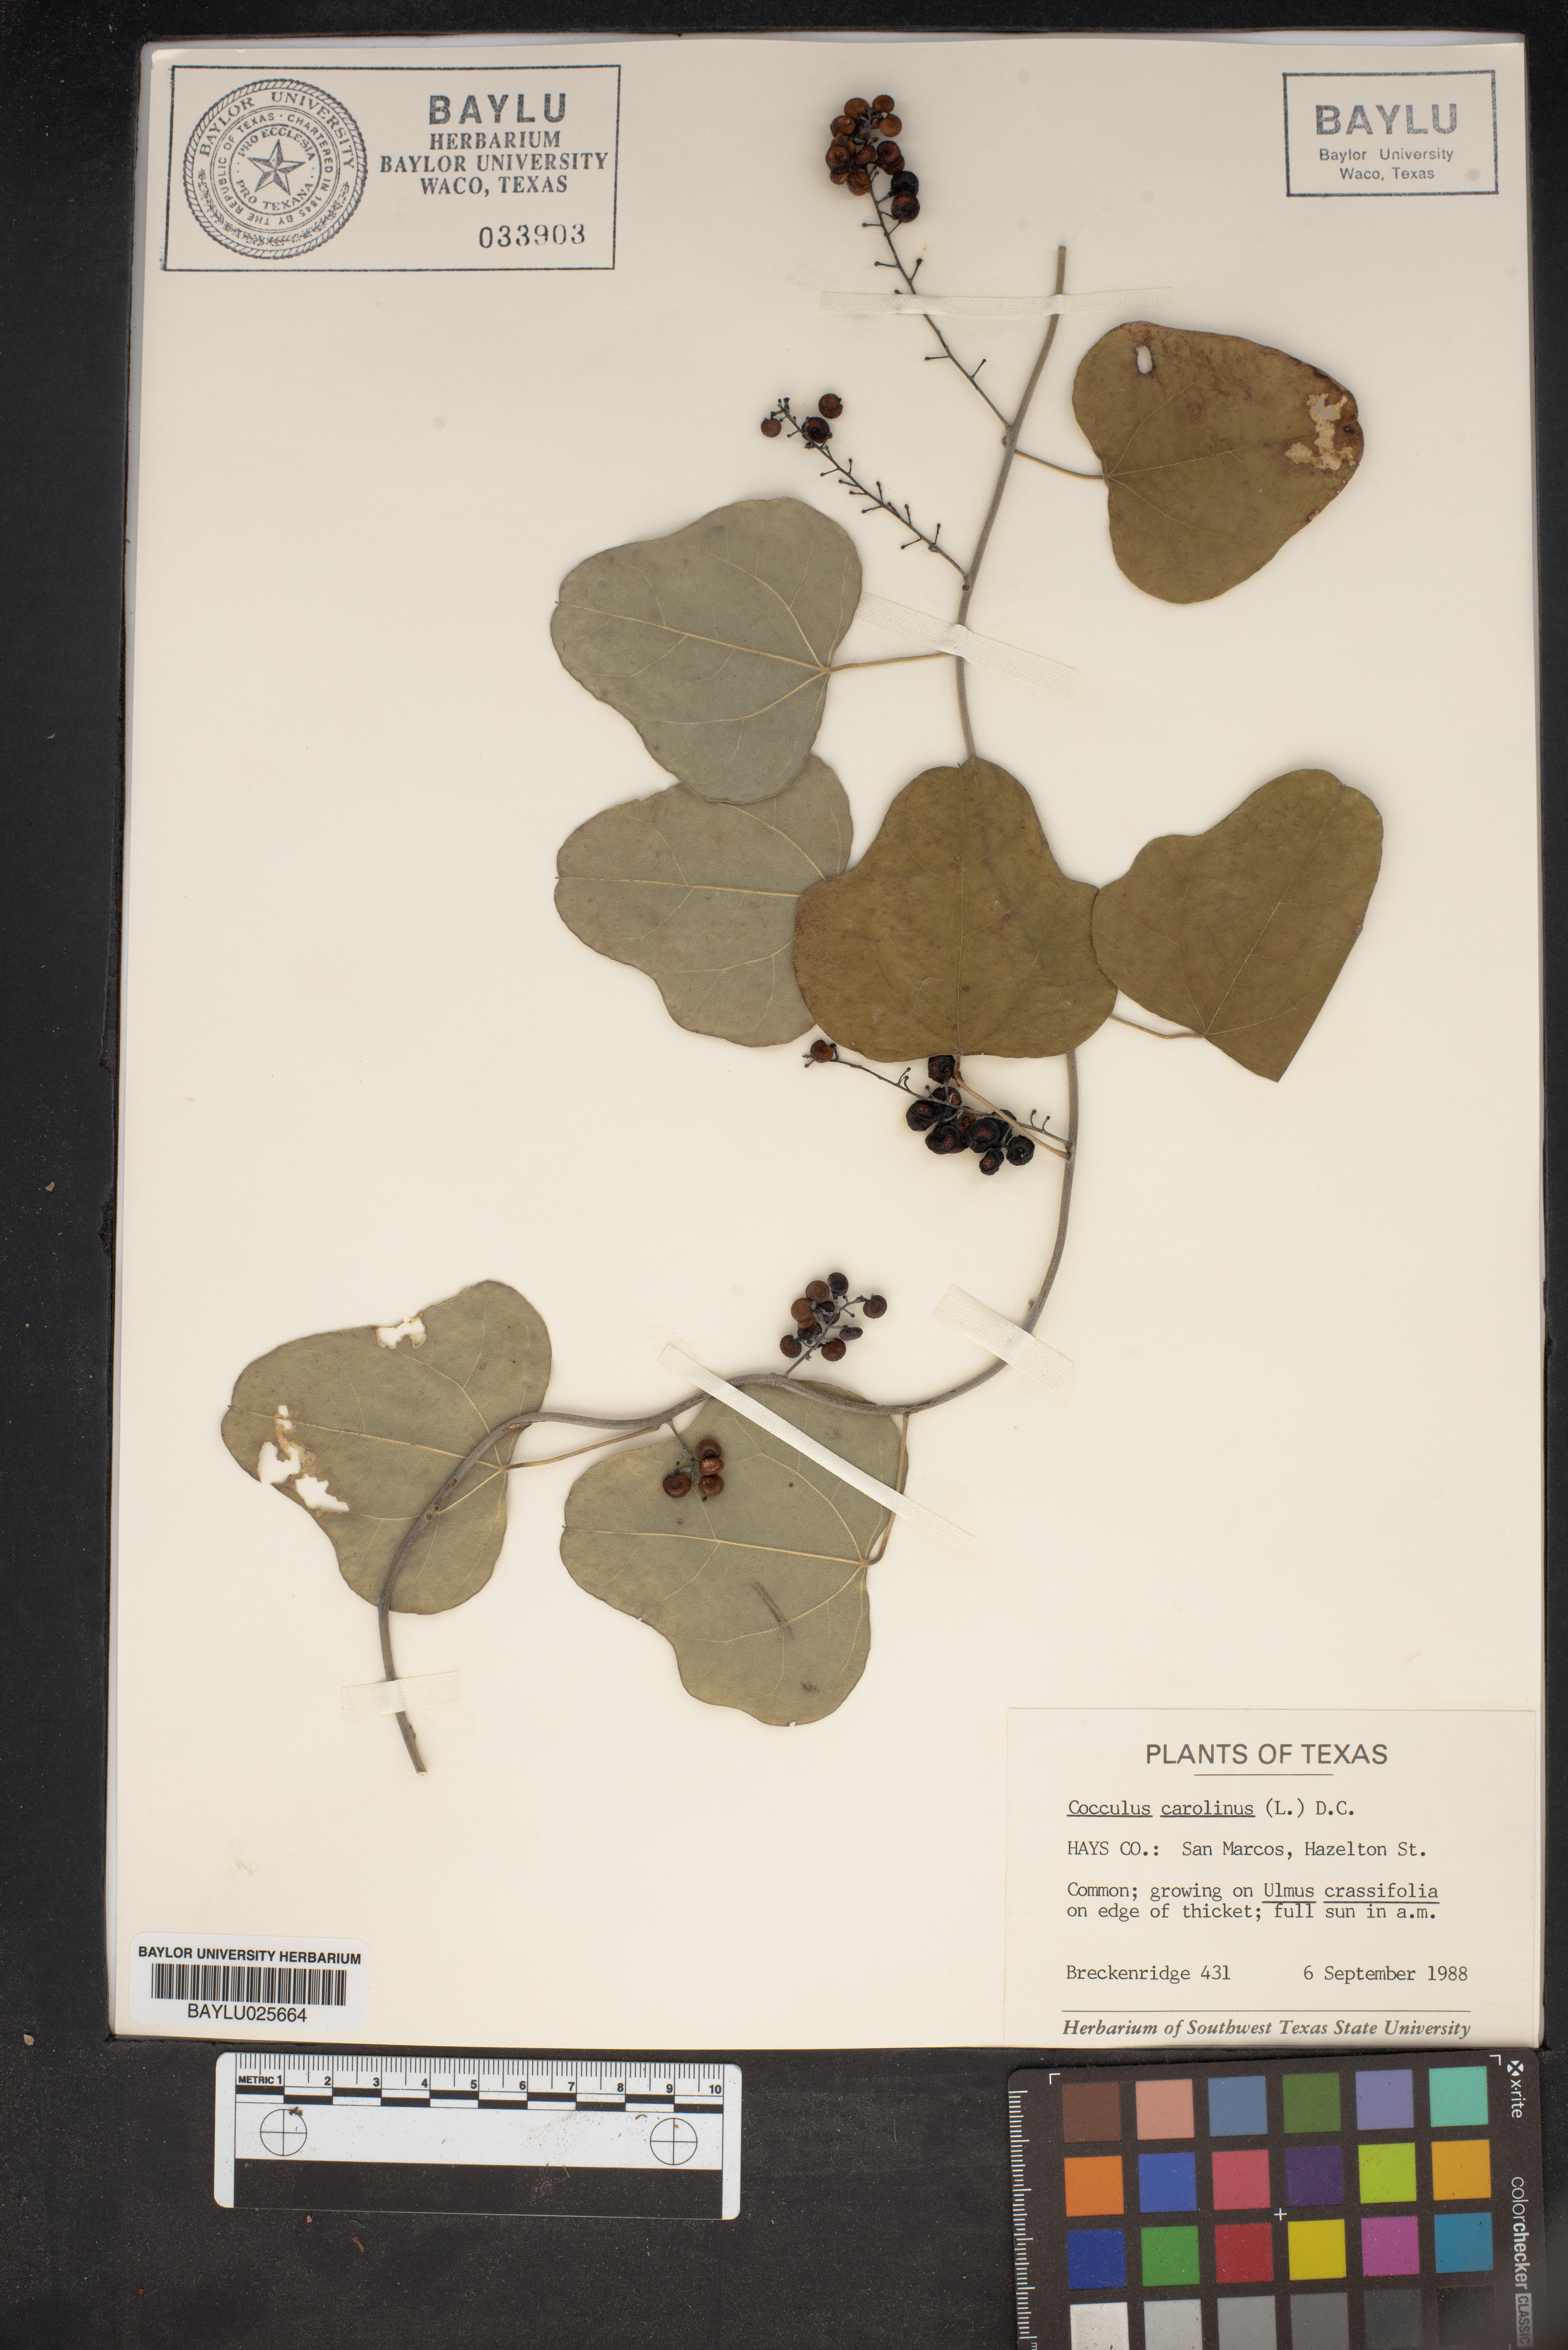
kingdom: Plantae
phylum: Tracheophyta
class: Magnoliopsida
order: Ranunculales
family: Menispermaceae
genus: Cocculus
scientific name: Cocculus carolinus
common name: Carolina moonseed
